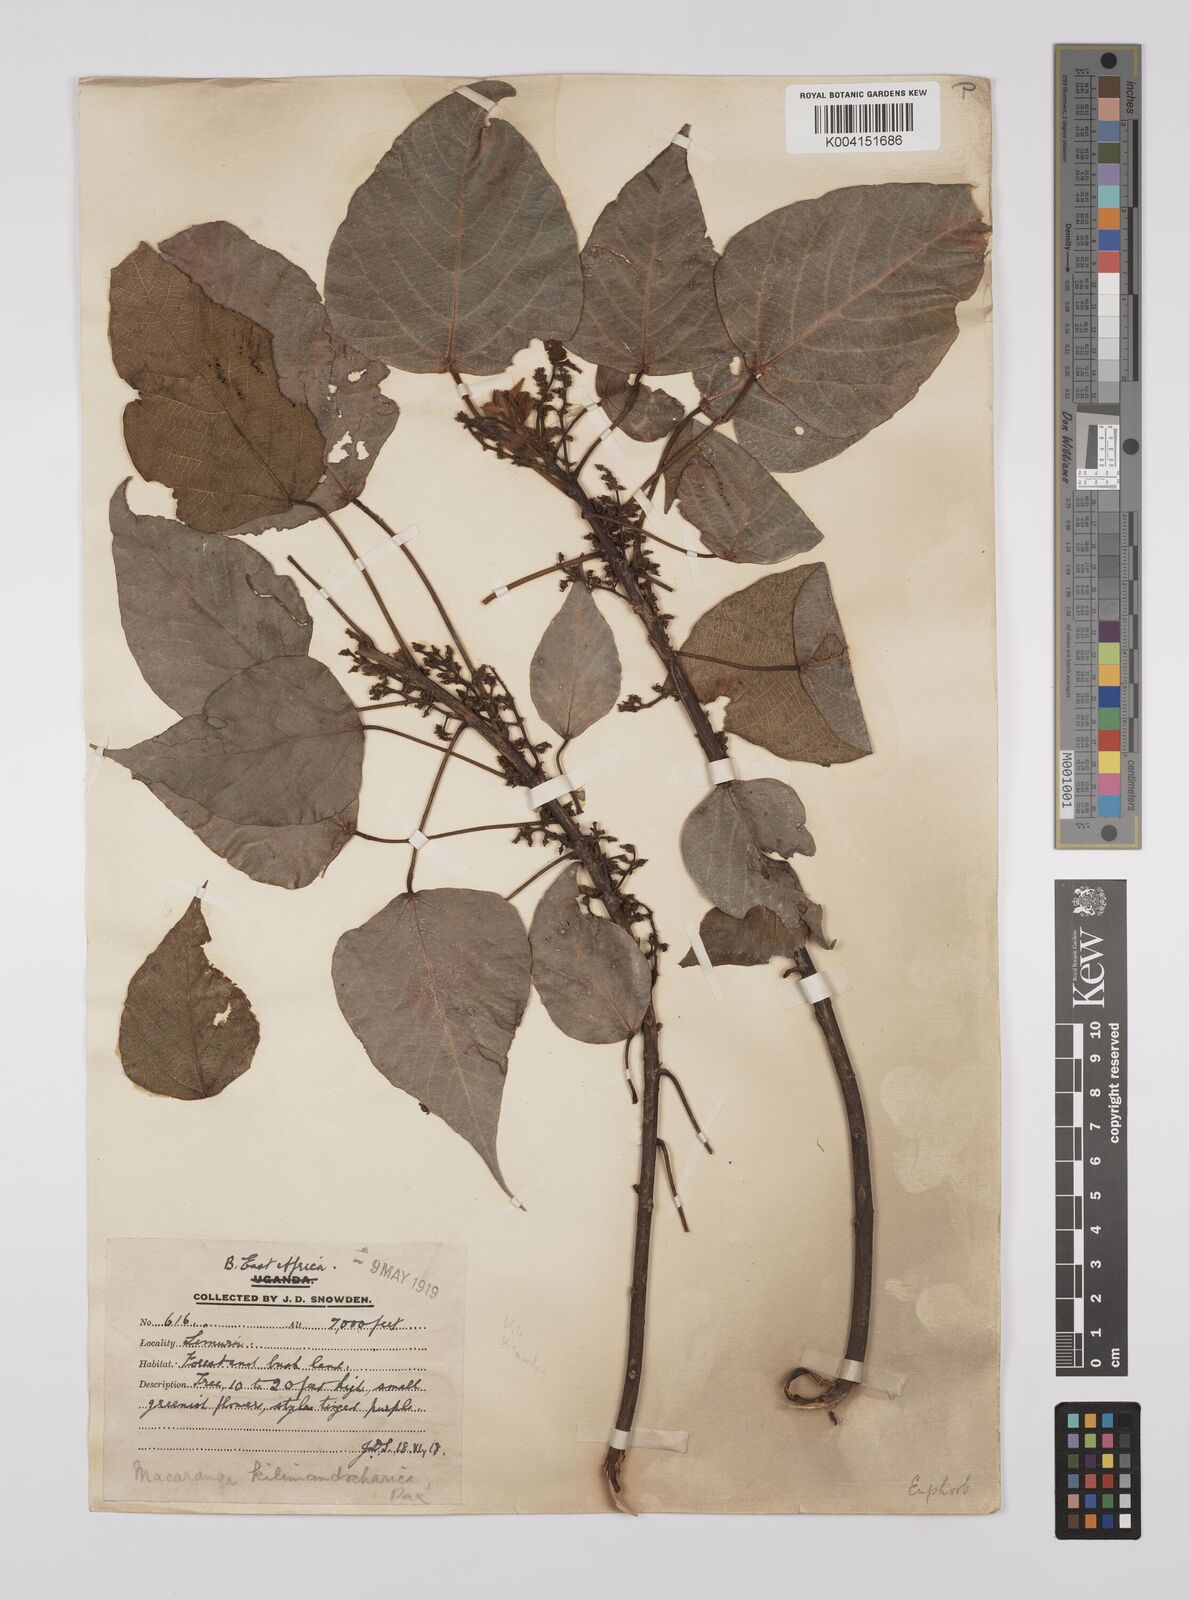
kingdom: Plantae
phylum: Tracheophyta
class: Magnoliopsida
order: Malpighiales
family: Euphorbiaceae
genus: Macaranga
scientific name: Macaranga
